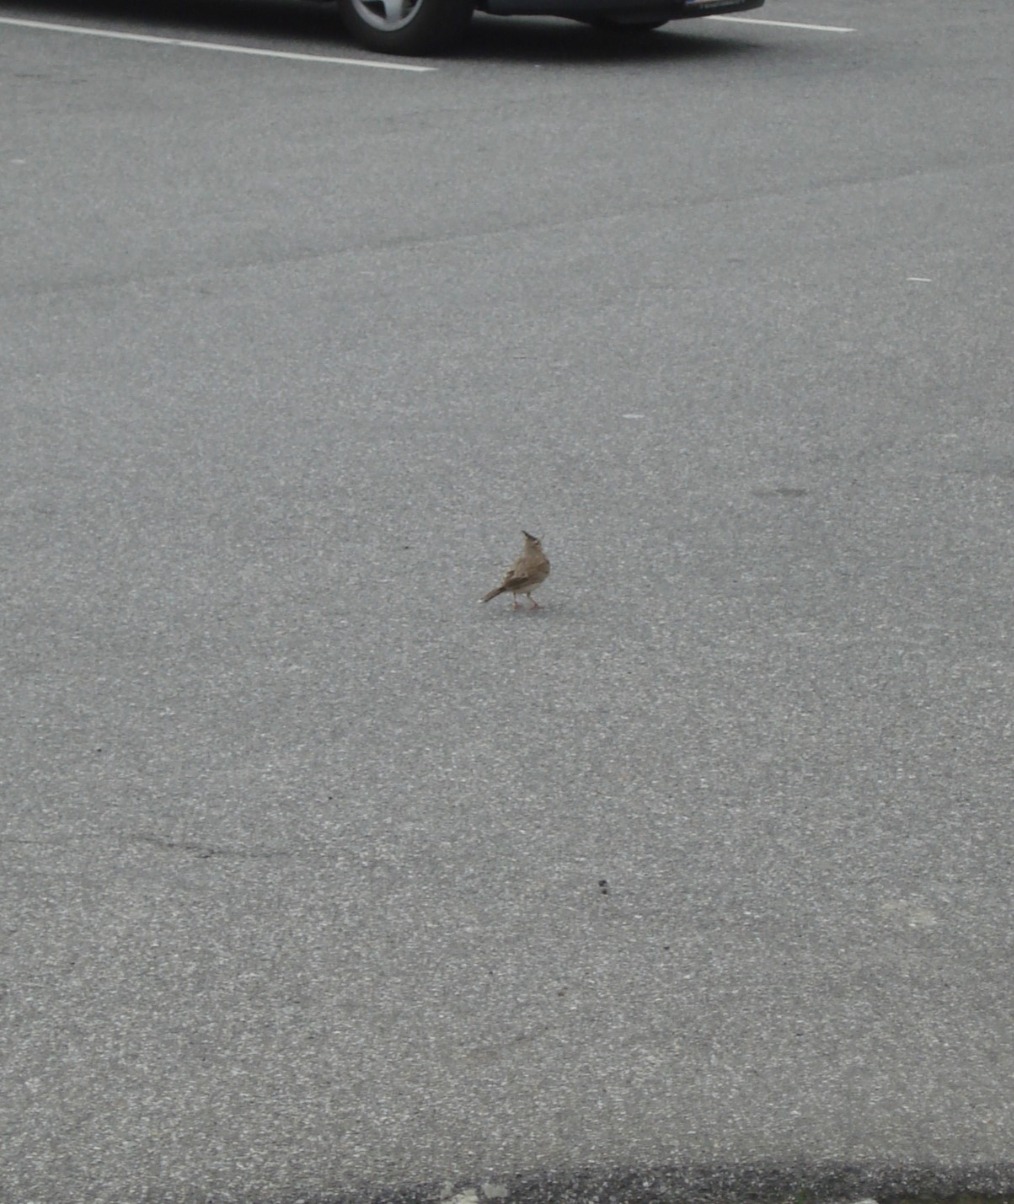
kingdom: Animalia
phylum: Chordata
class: Aves
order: Passeriformes
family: Alaudidae
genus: Galerida
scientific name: Galerida cristata
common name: Toplærke
